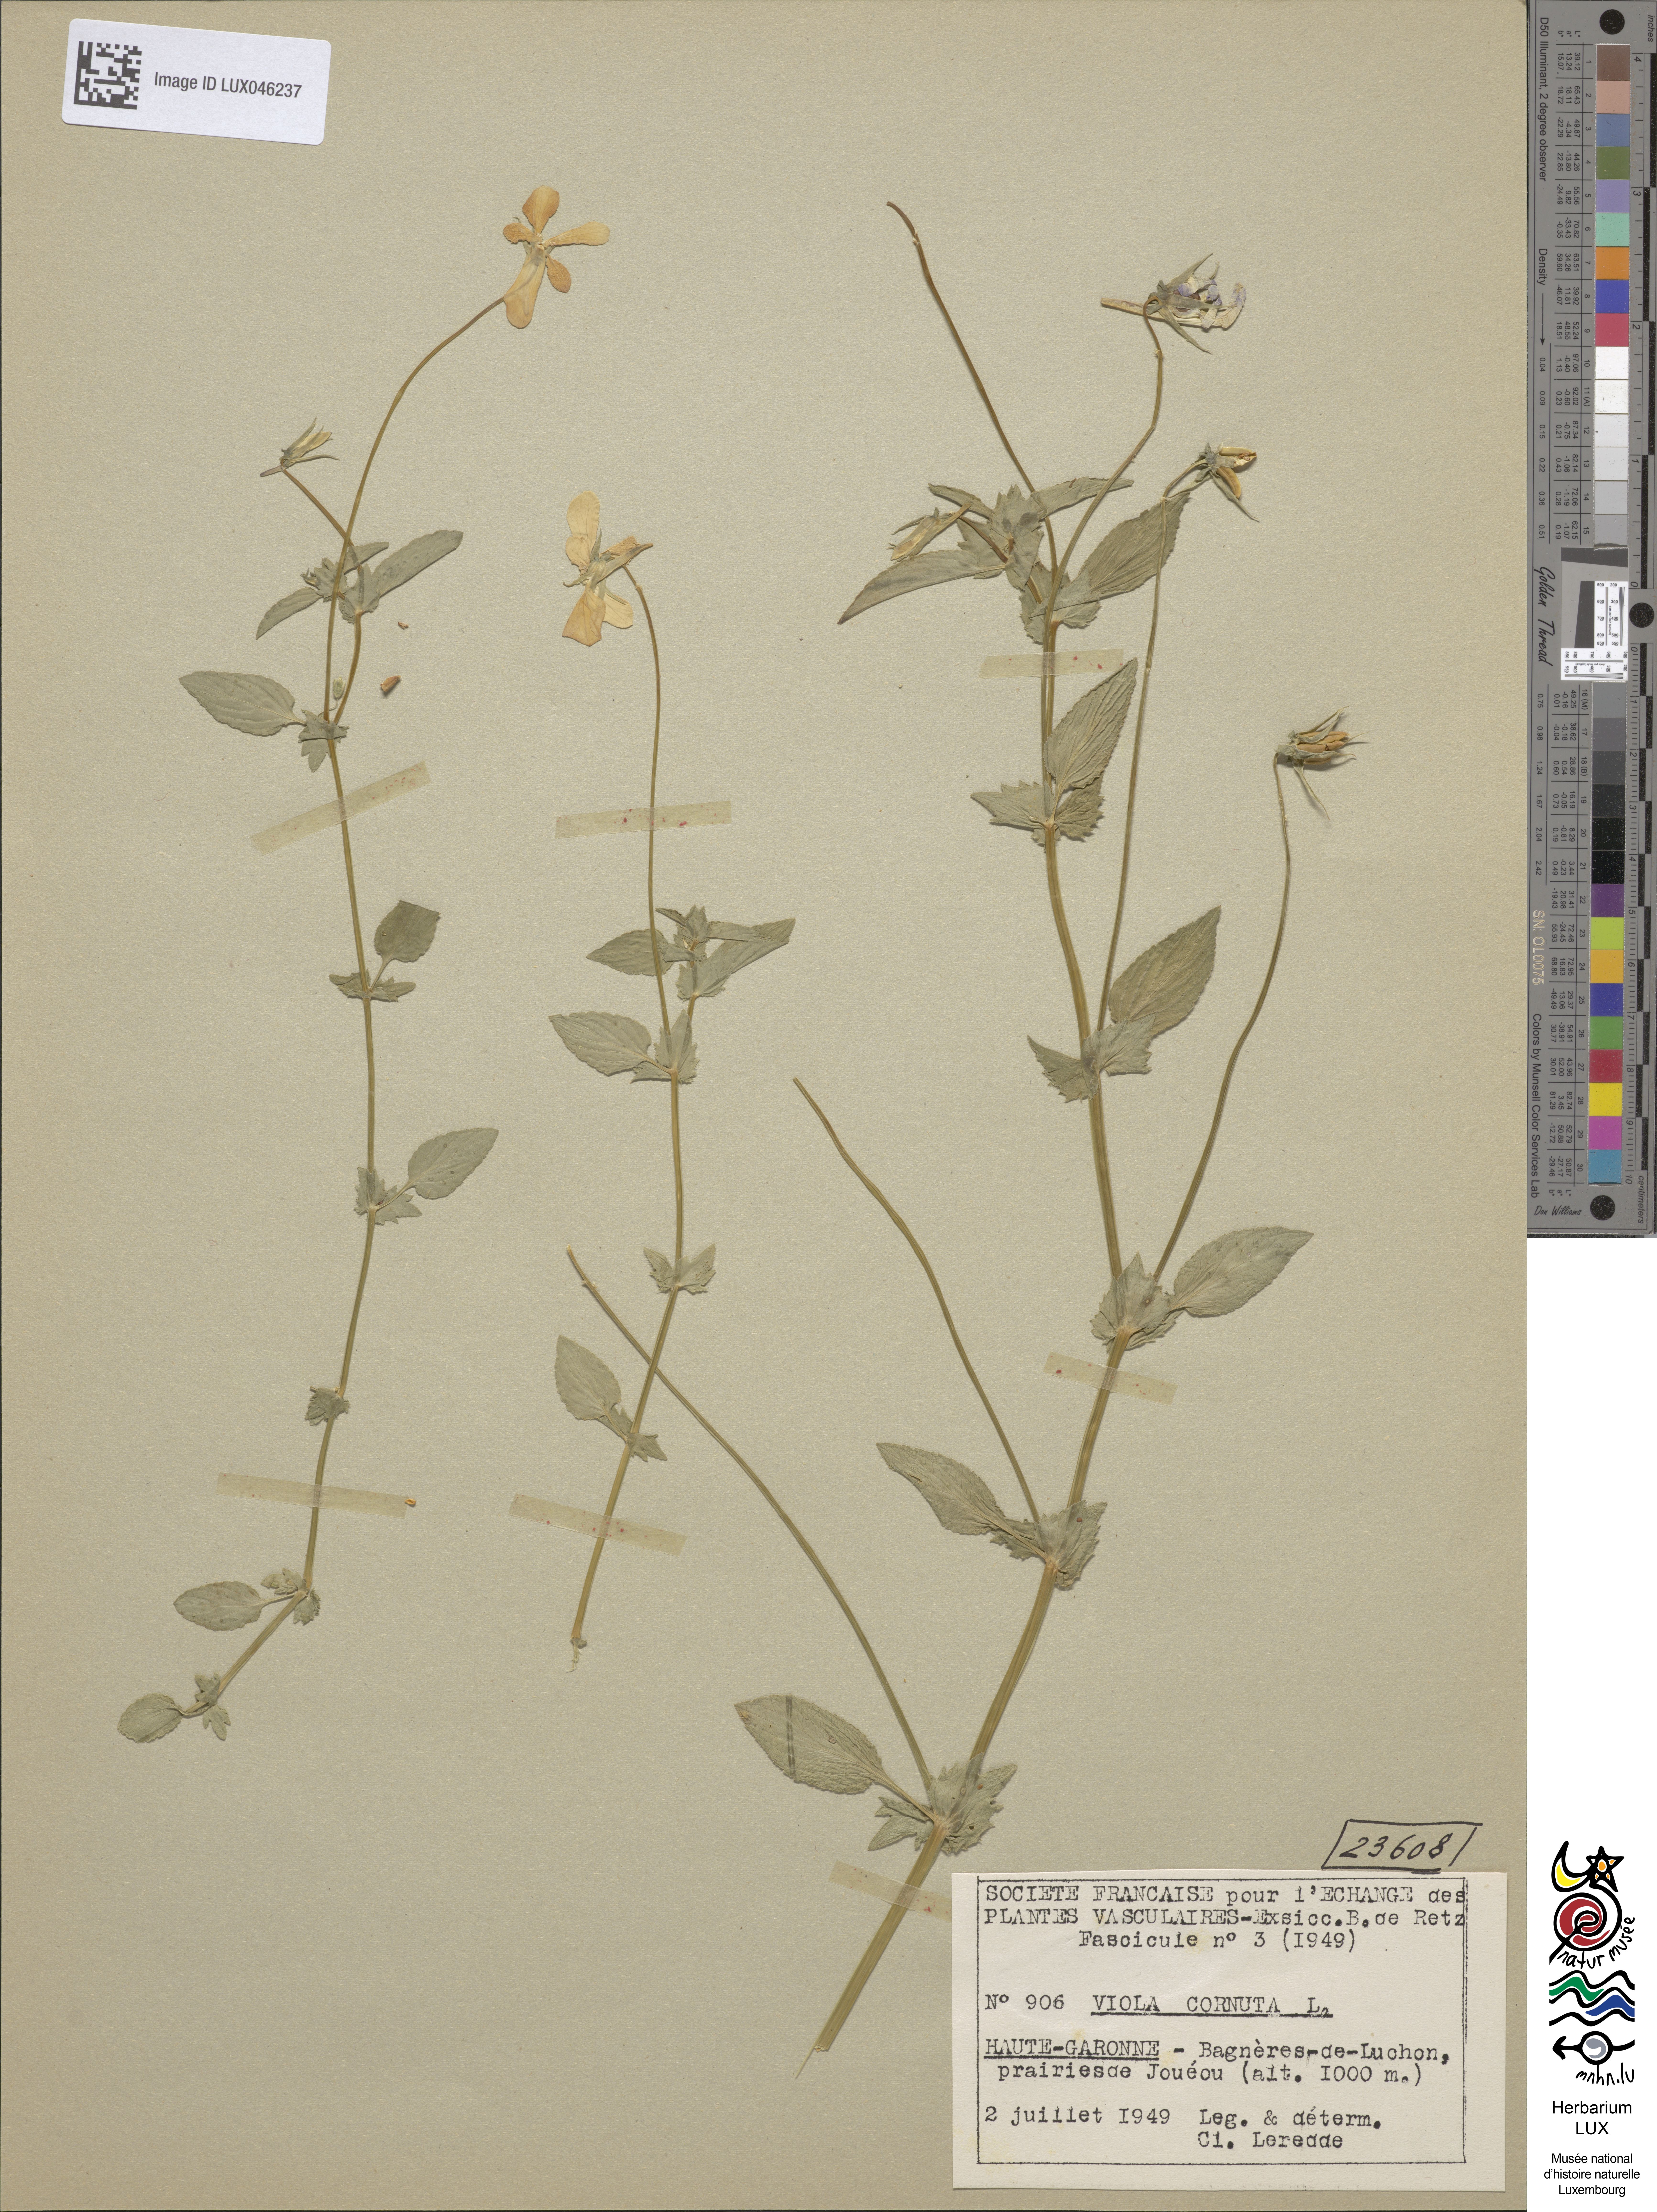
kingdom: Plantae
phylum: Tracheophyta
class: Magnoliopsida
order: Malpighiales
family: Violaceae
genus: Viola
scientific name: Viola cornuta
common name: Horned pansy
